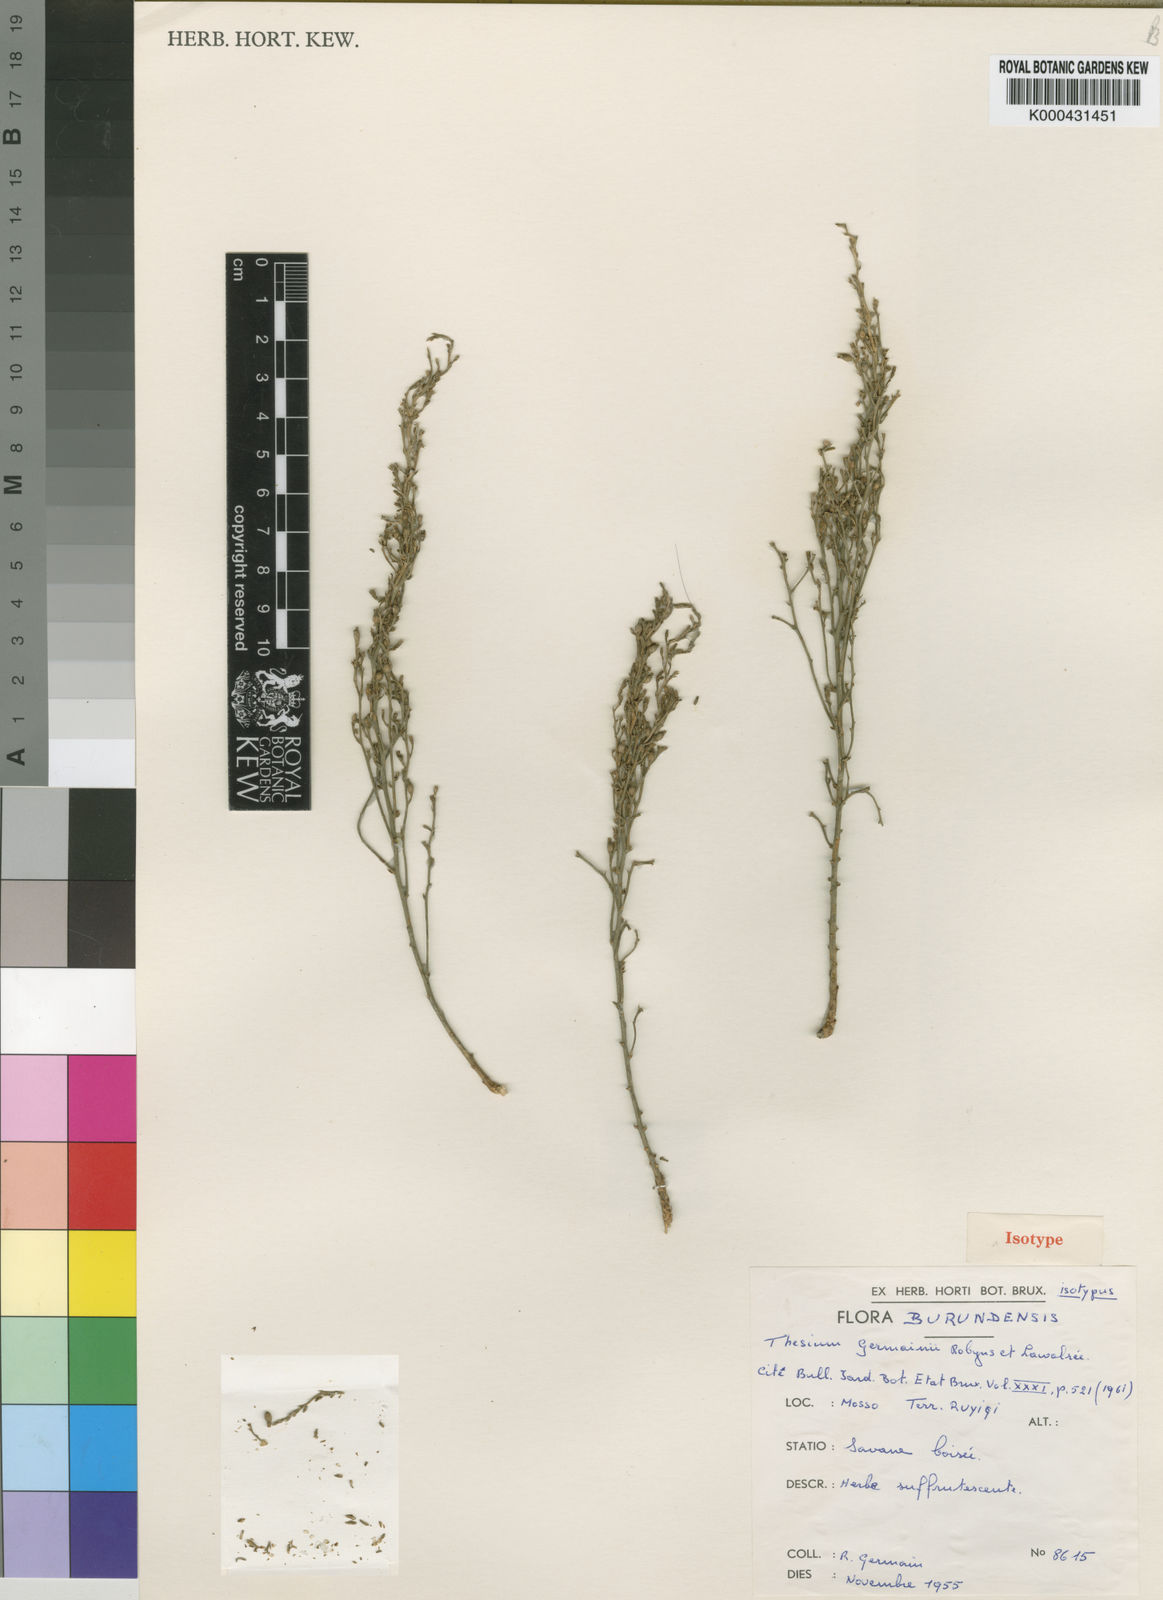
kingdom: Plantae
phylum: Tracheophyta
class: Magnoliopsida
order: Santalales
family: Thesiaceae
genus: Thesium
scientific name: Thesium
